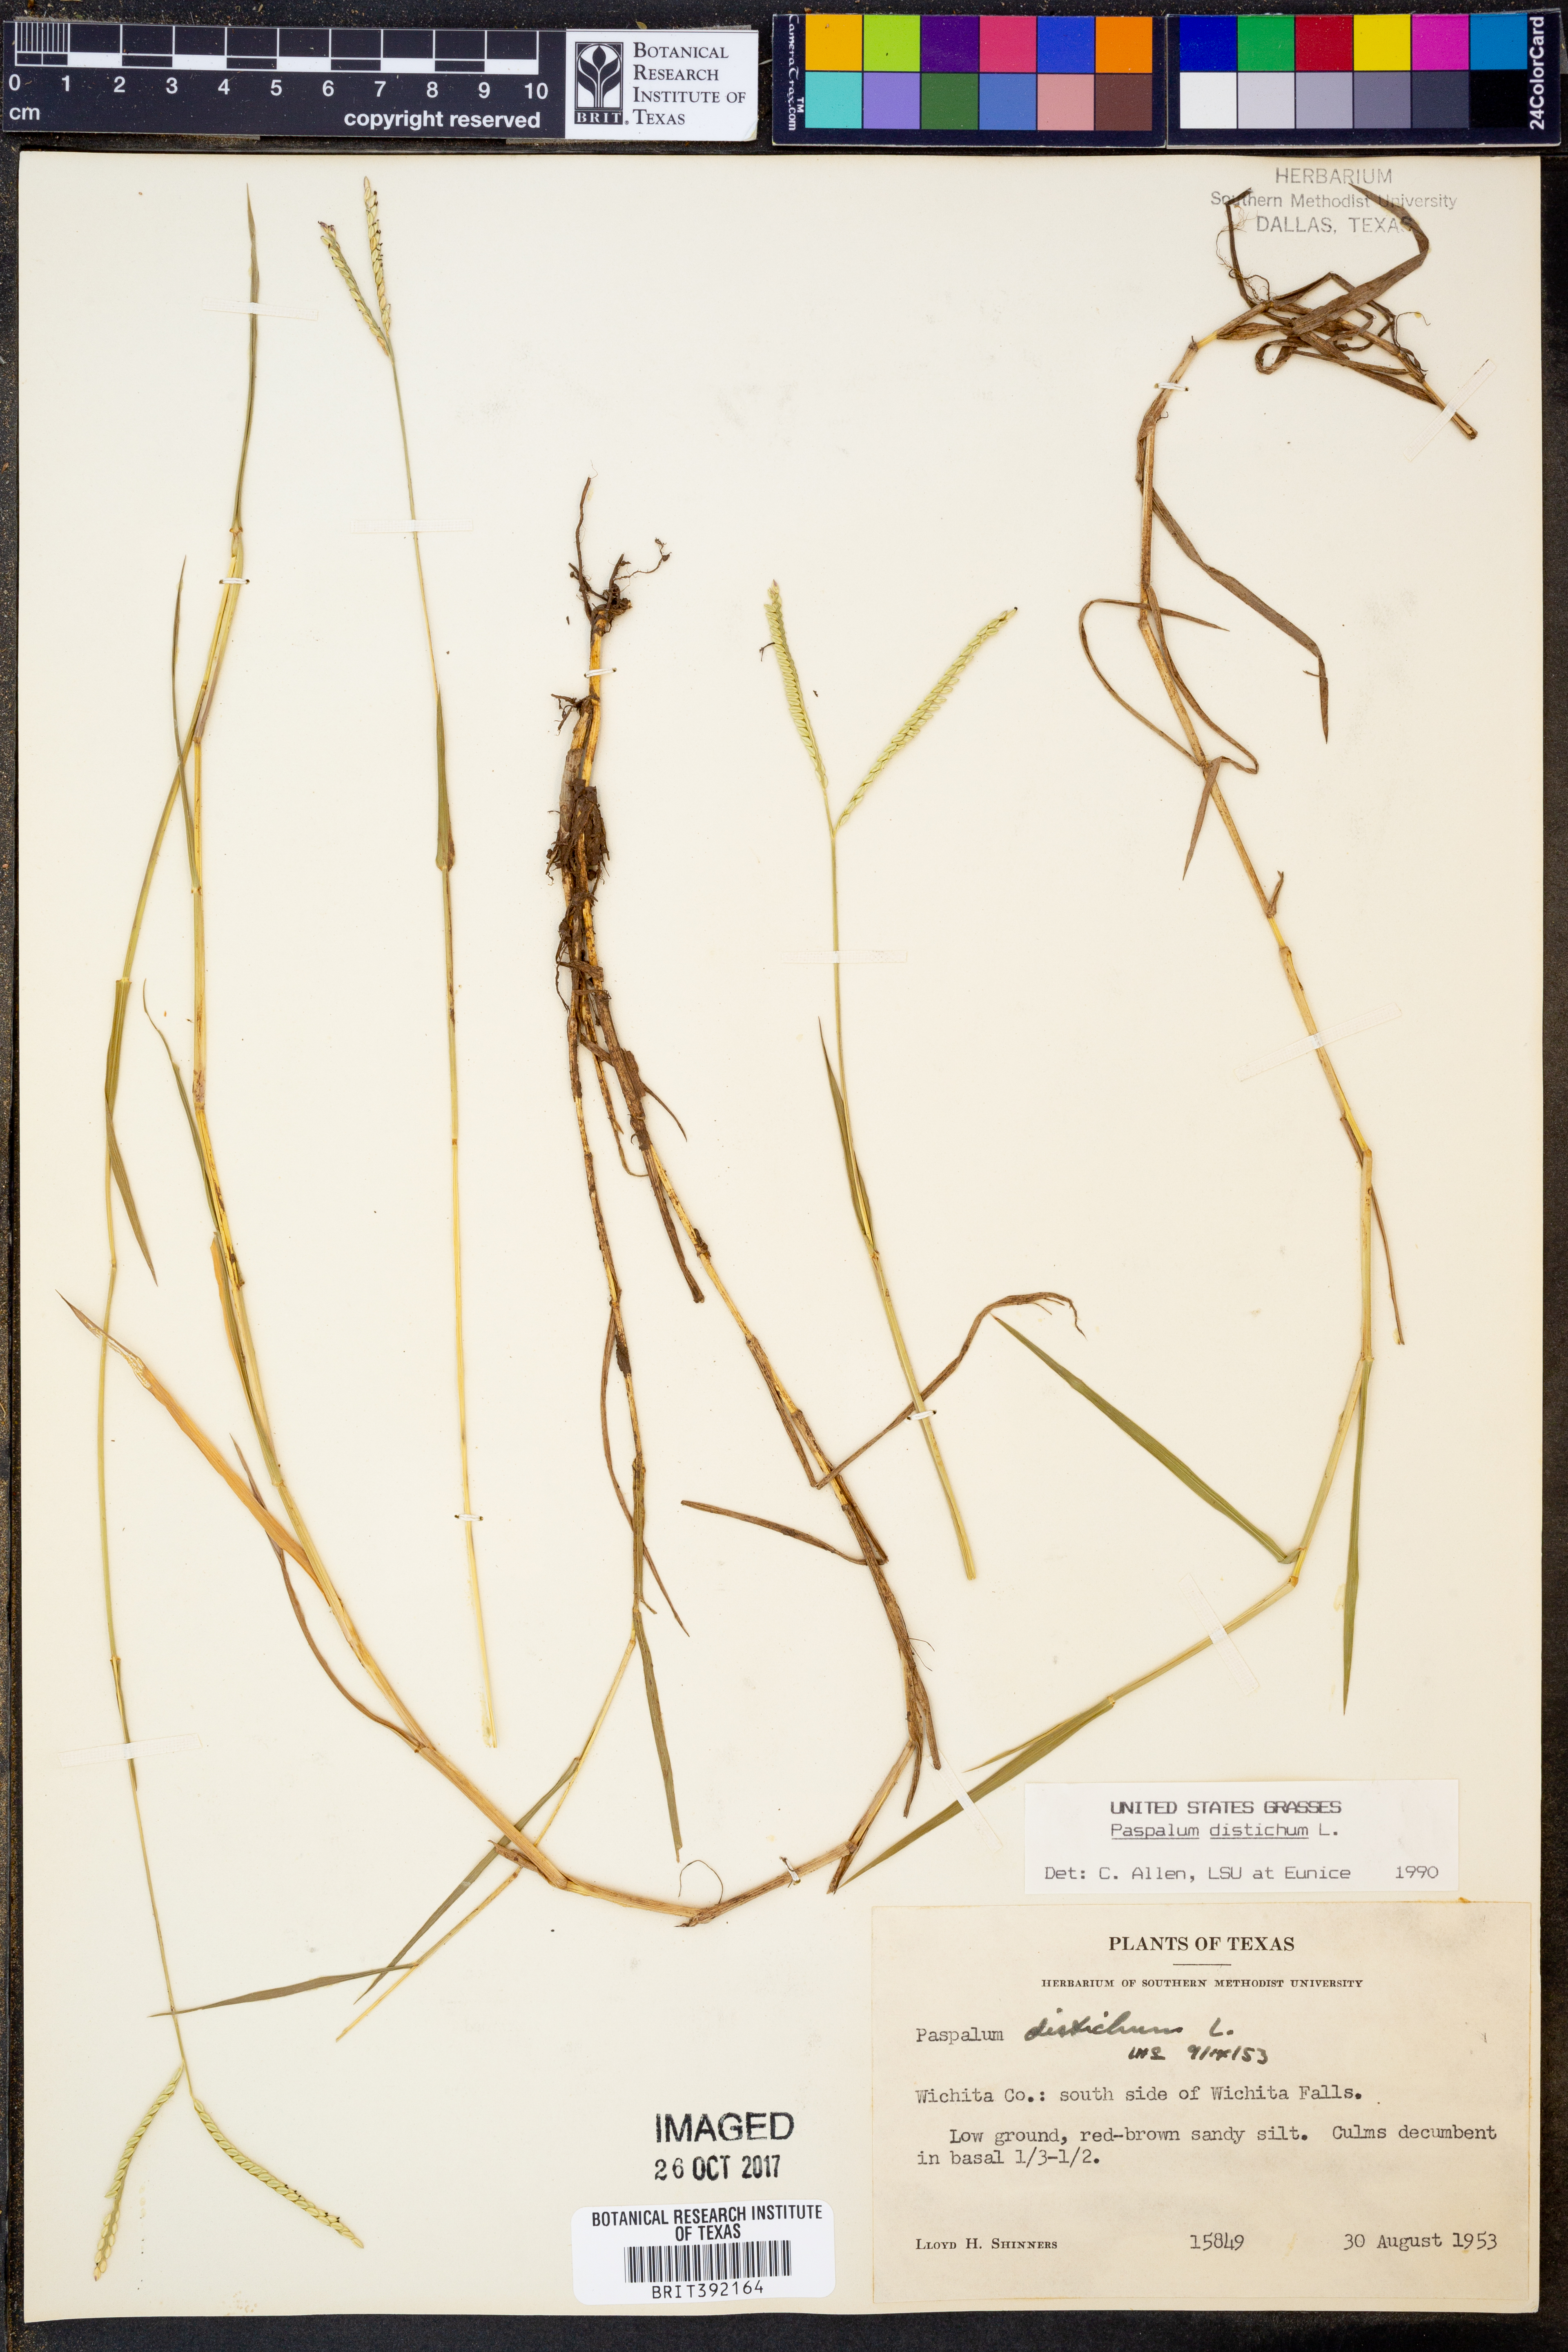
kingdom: Plantae
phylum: Tracheophyta
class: Liliopsida
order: Poales
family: Poaceae
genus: Paspalum
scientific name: Paspalum distichum
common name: Knotgrass
